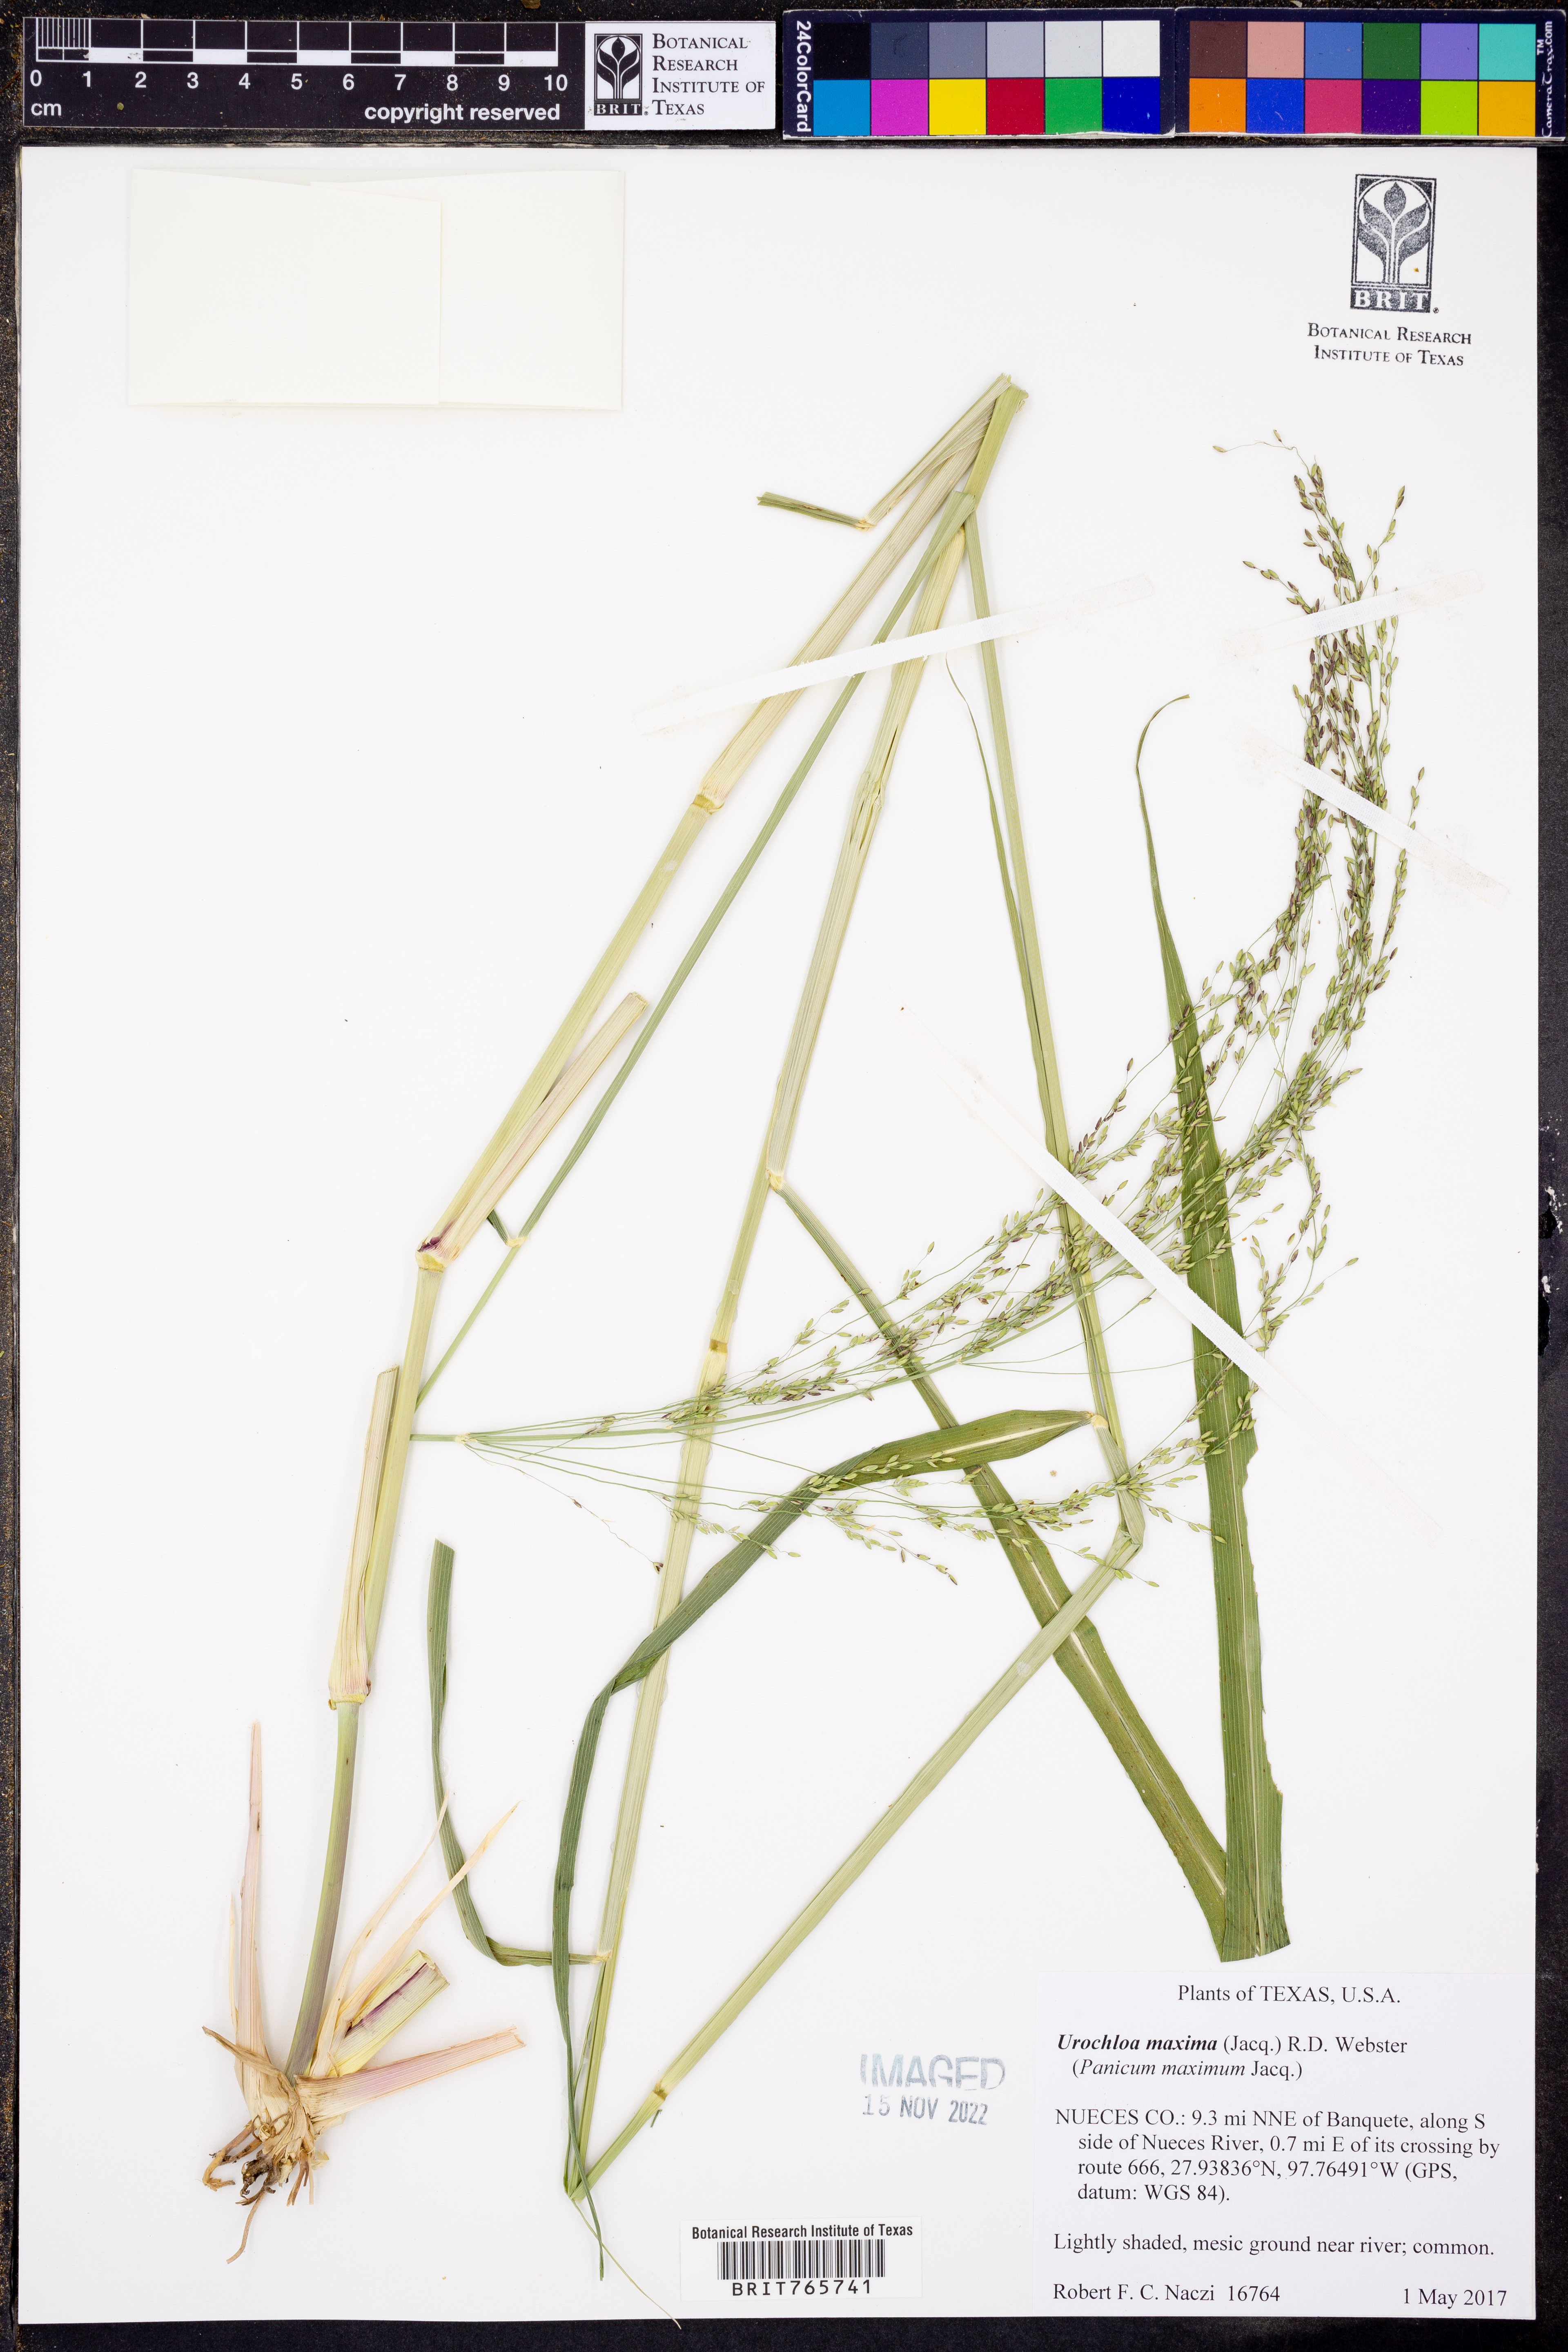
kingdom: Plantae
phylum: Tracheophyta
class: Liliopsida
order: Poales
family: Poaceae
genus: Megathyrsus
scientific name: Megathyrsus maximus
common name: Guineagrass
